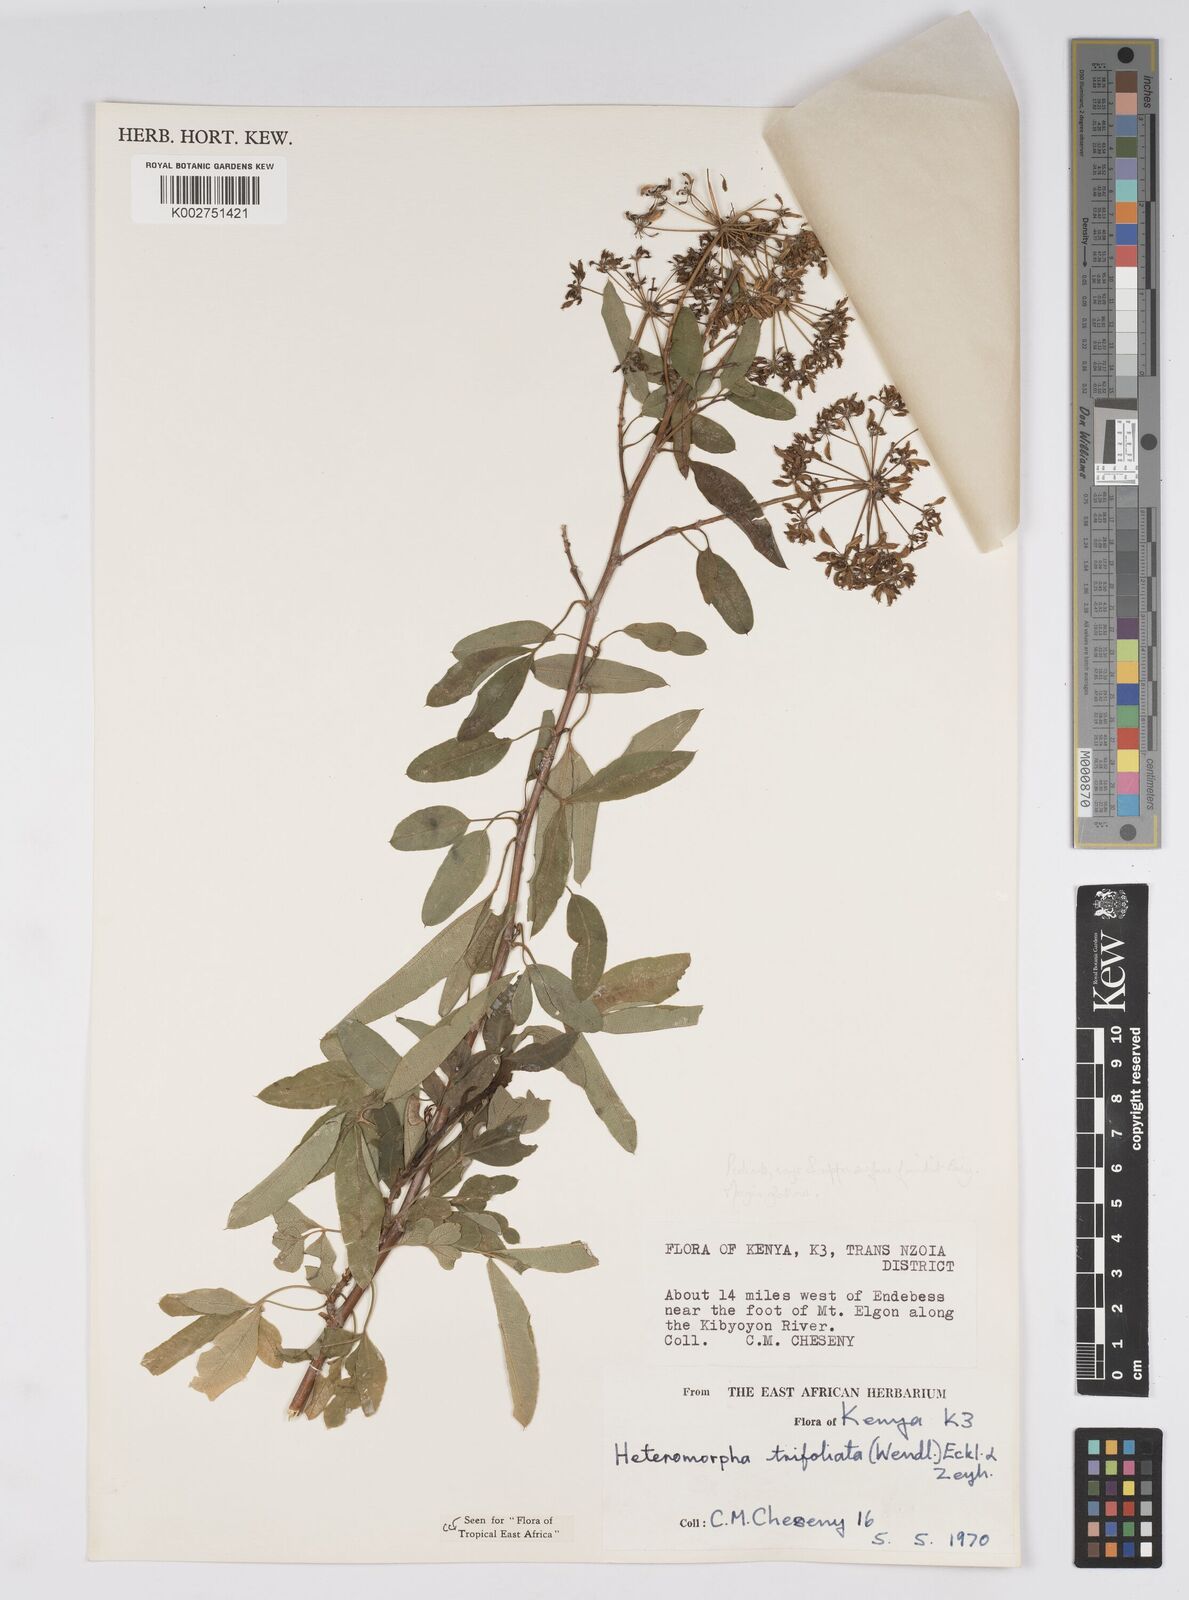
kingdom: Plantae
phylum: Tracheophyta
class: Magnoliopsida
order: Apiales
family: Apiaceae
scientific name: Apiaceae
